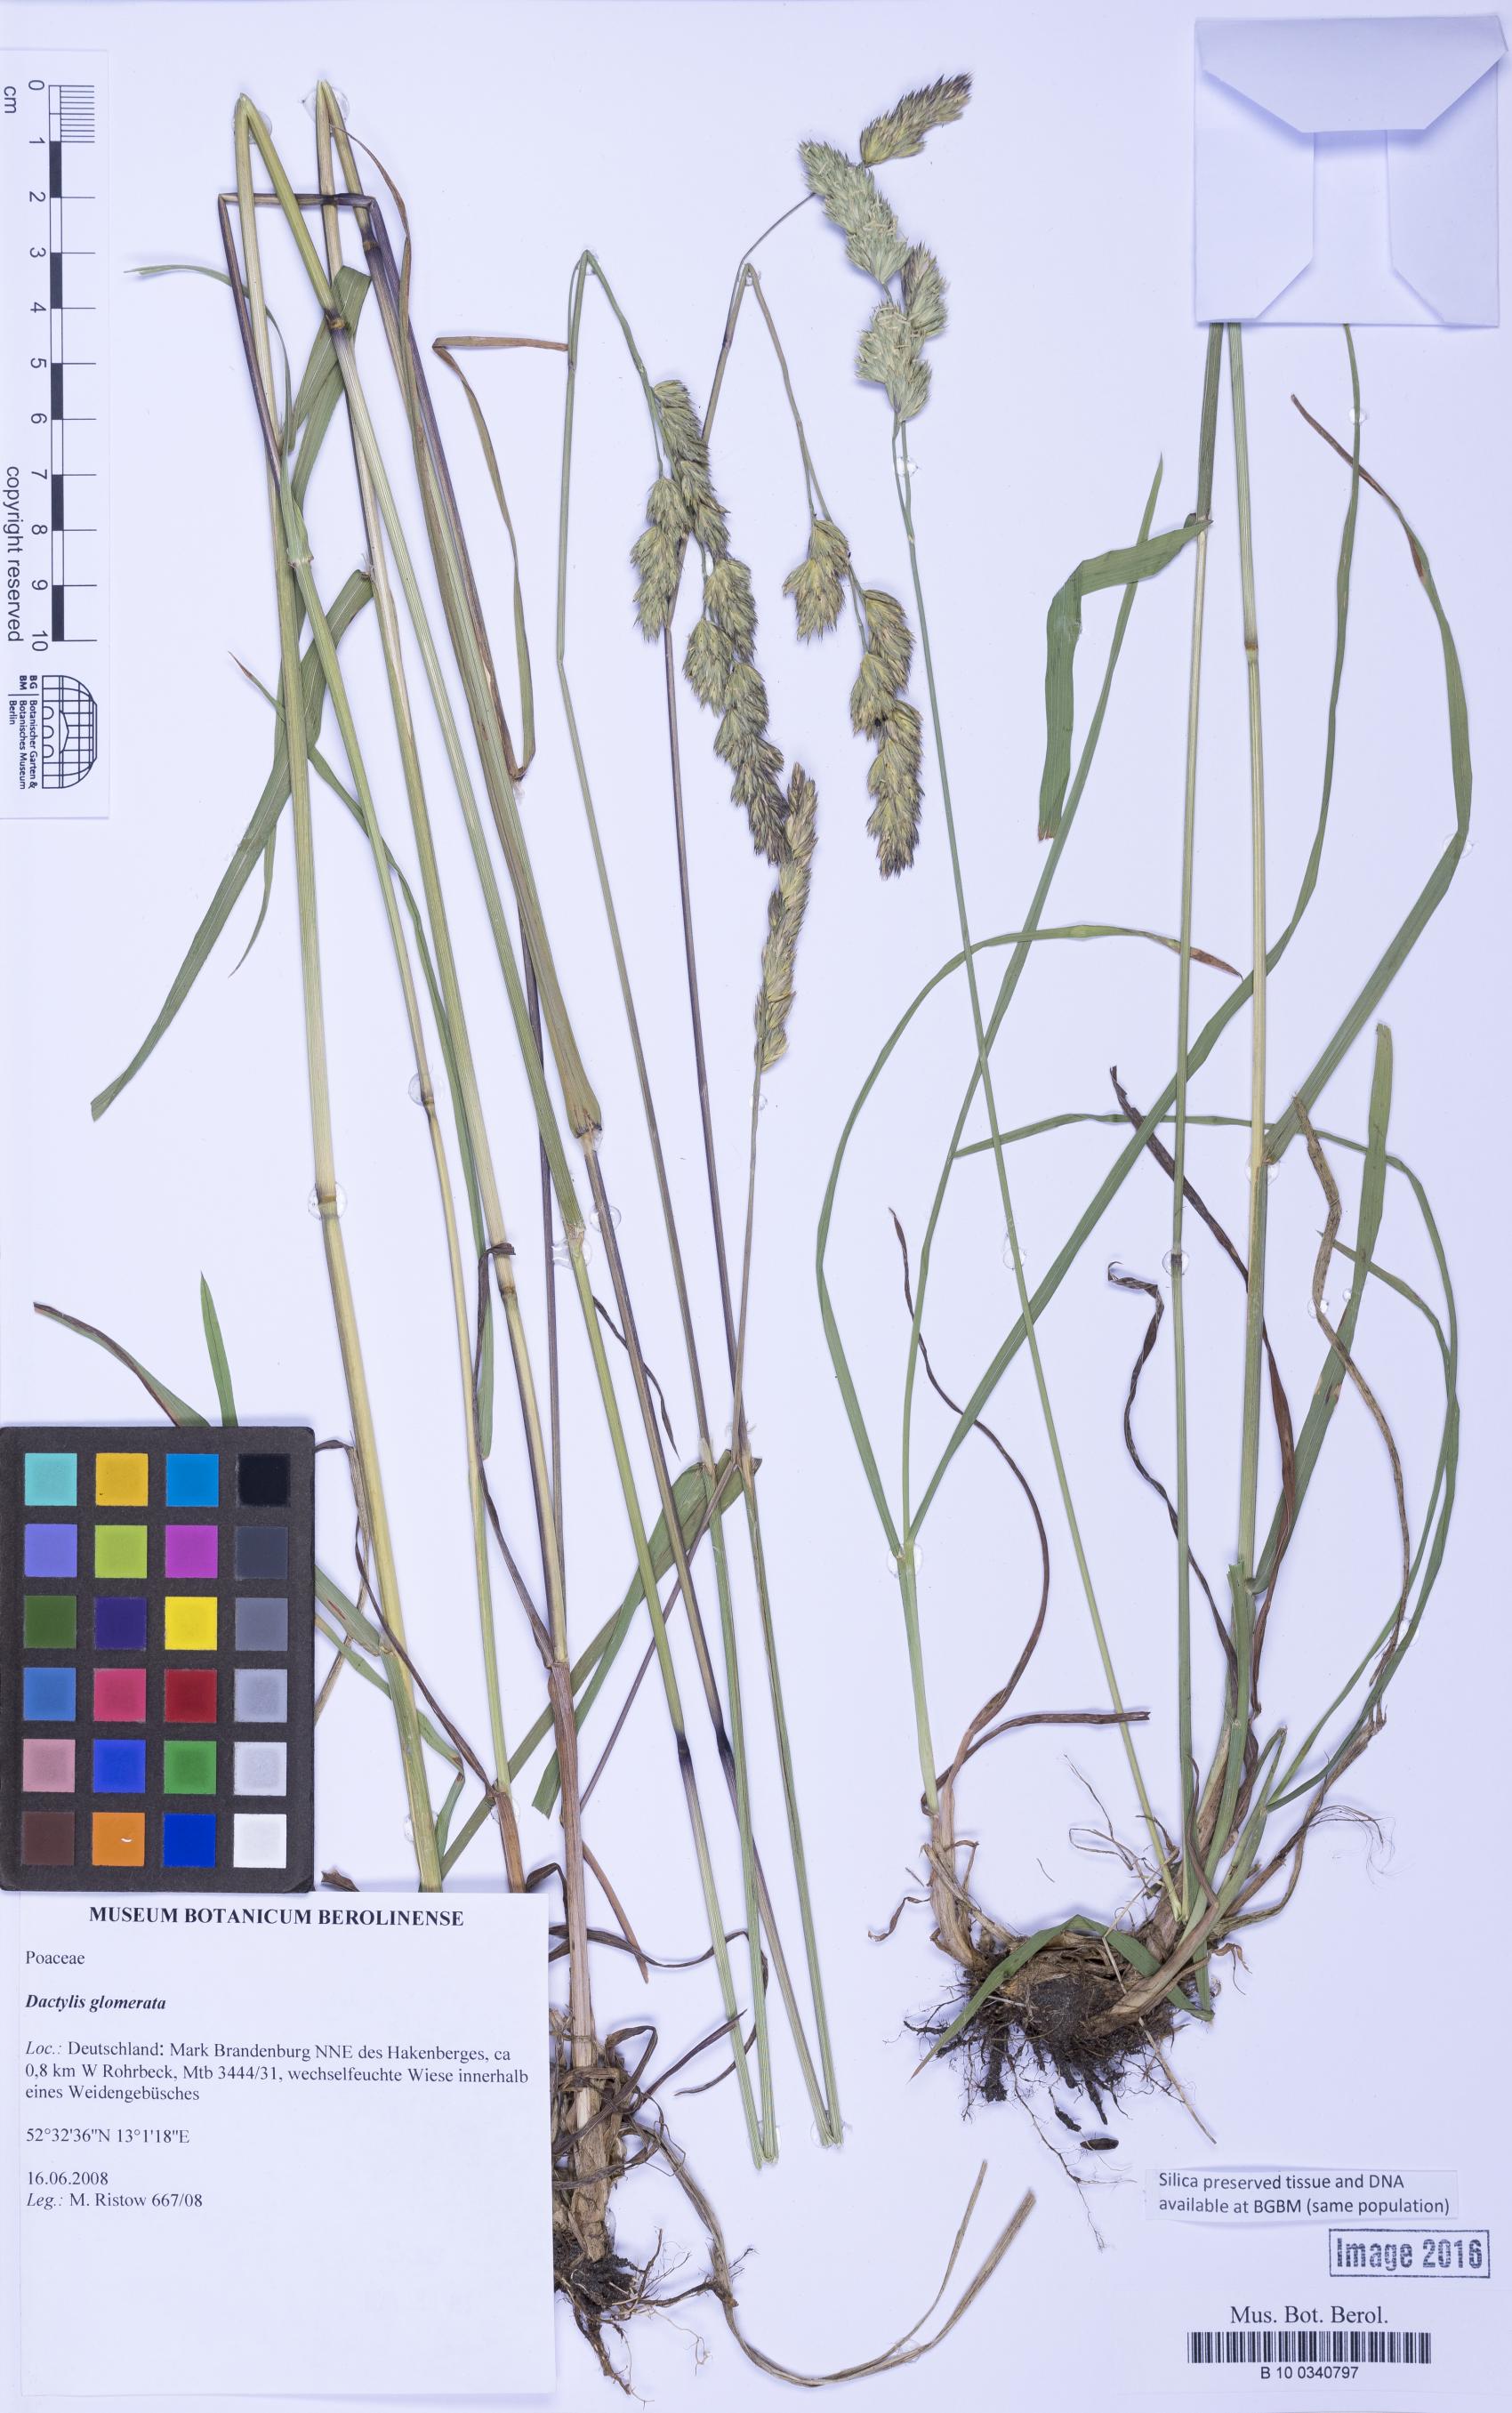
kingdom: Plantae
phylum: Tracheophyta
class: Liliopsida
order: Poales
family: Poaceae
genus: Dactylis
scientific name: Dactylis glomerata
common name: Orchardgrass
